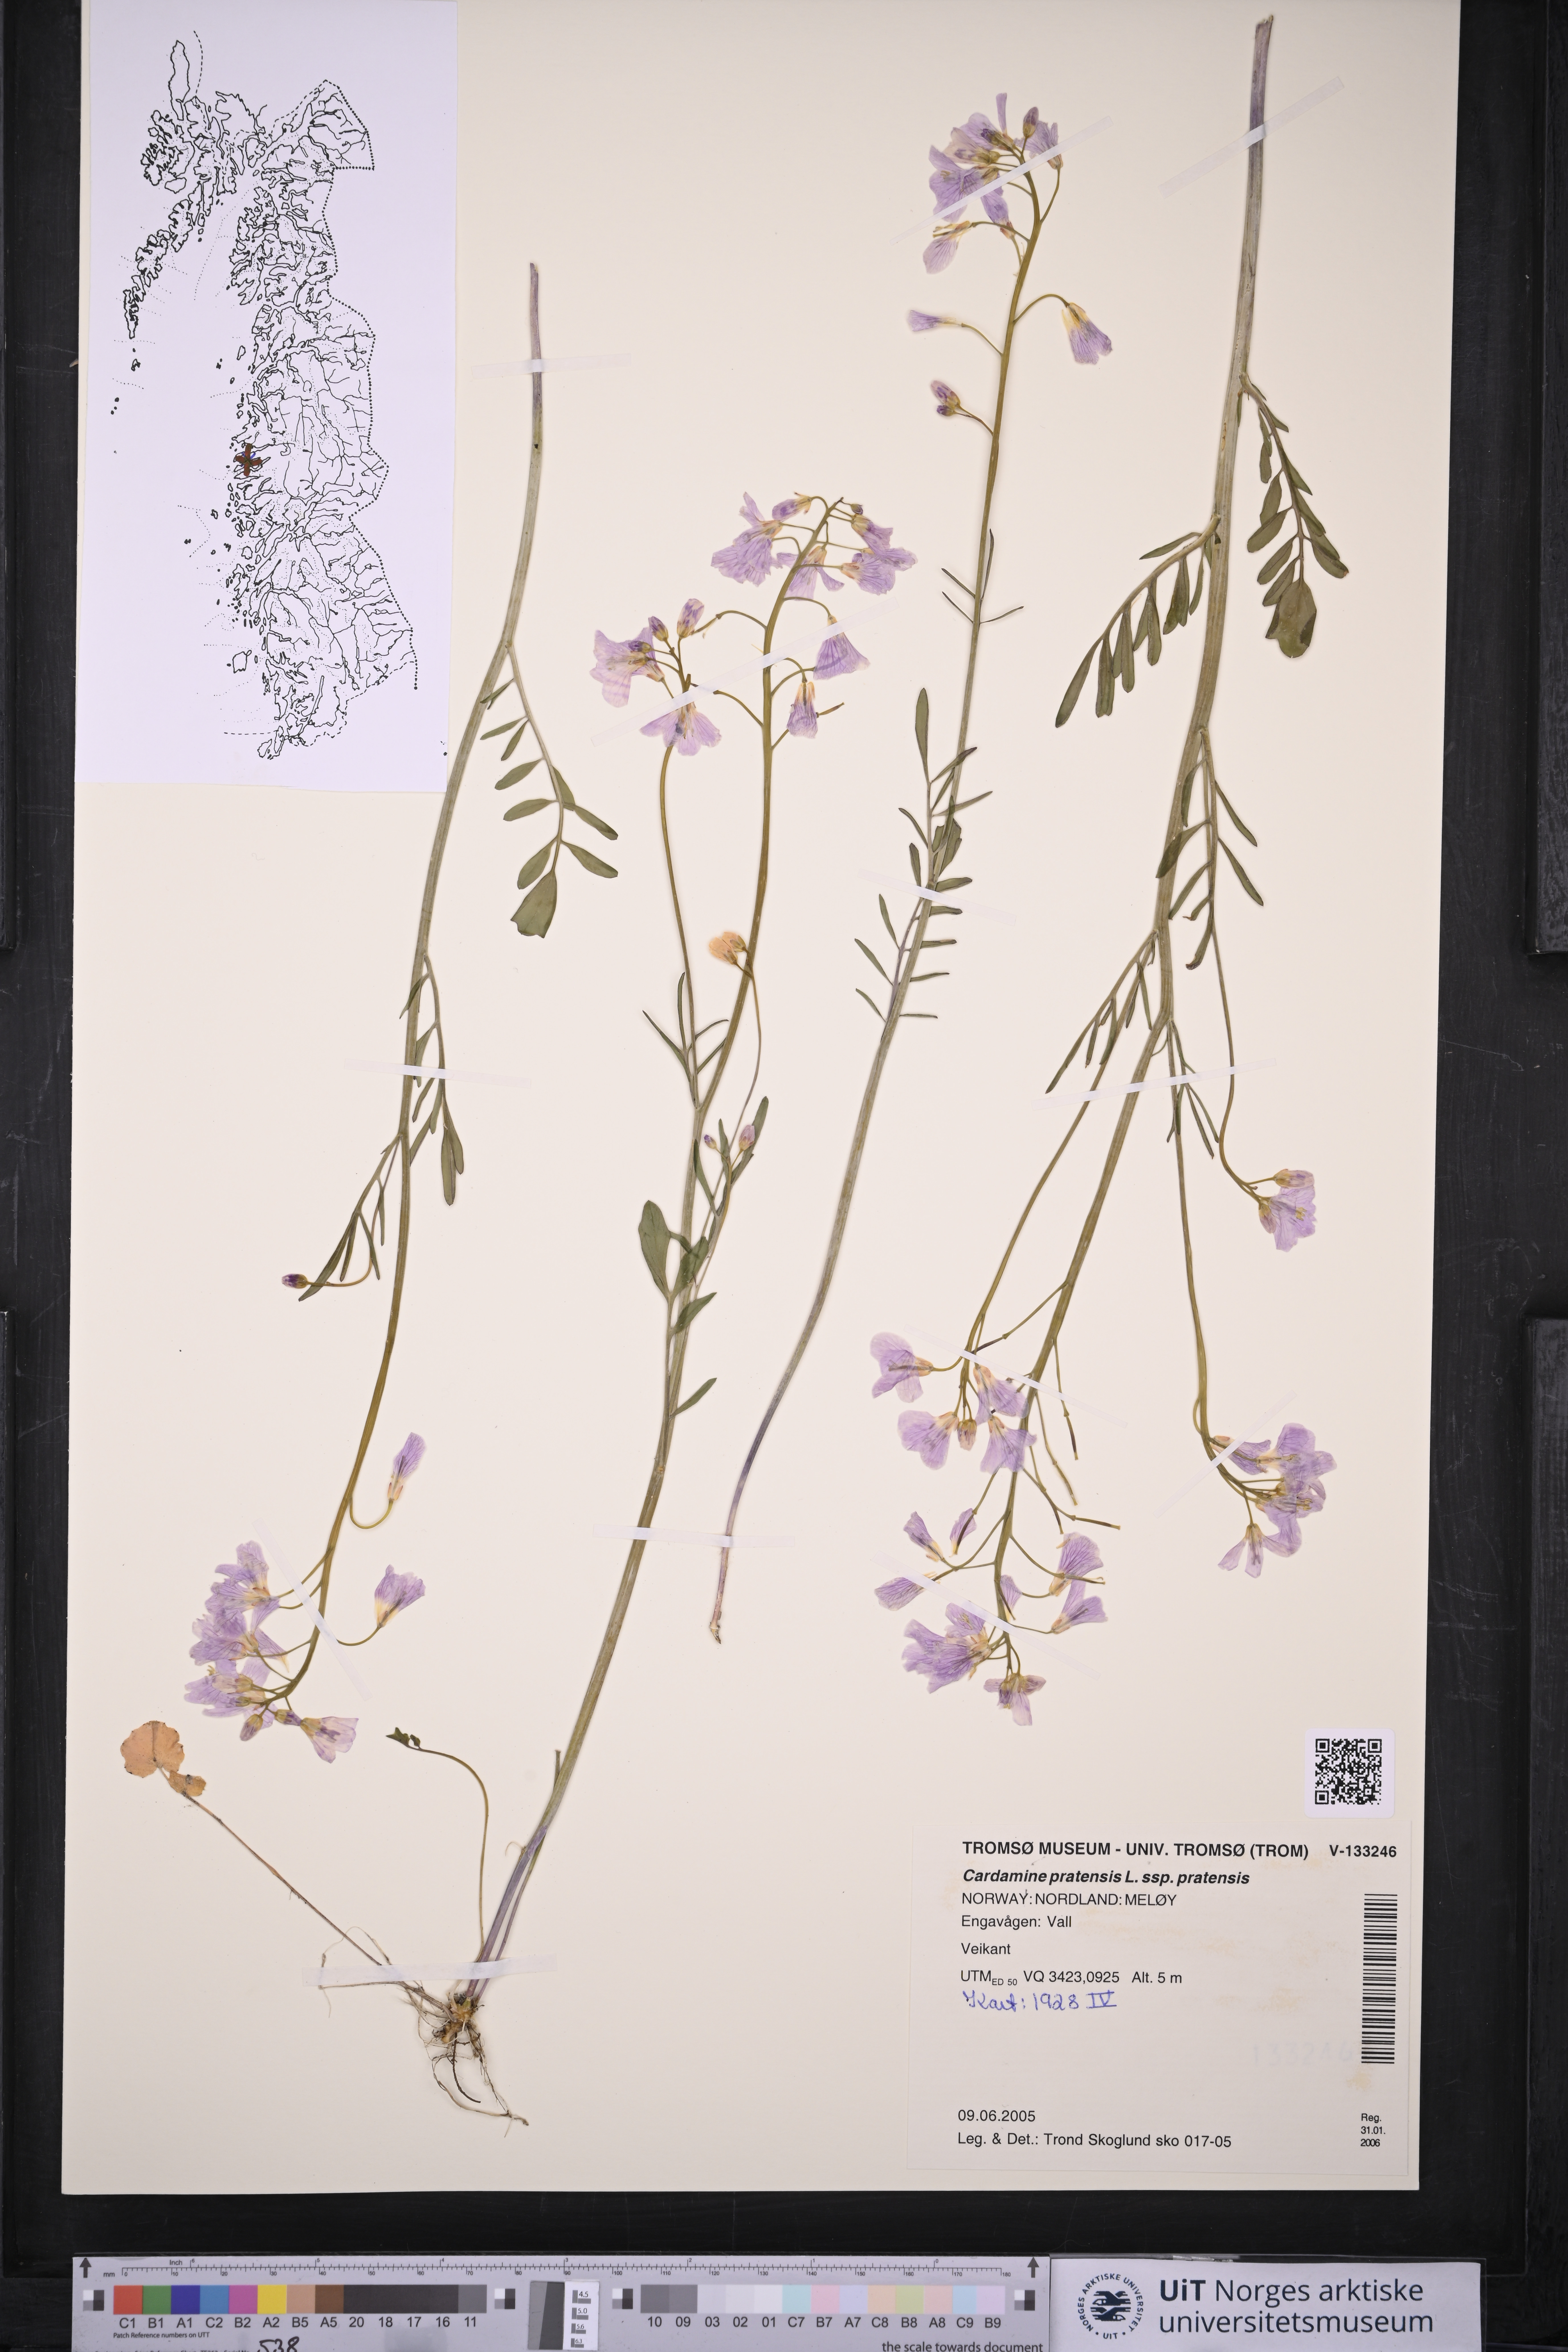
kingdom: Plantae
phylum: Tracheophyta
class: Magnoliopsida
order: Brassicales
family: Brassicaceae
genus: Cardamine
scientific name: Cardamine pratensis
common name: Cuckoo flower
